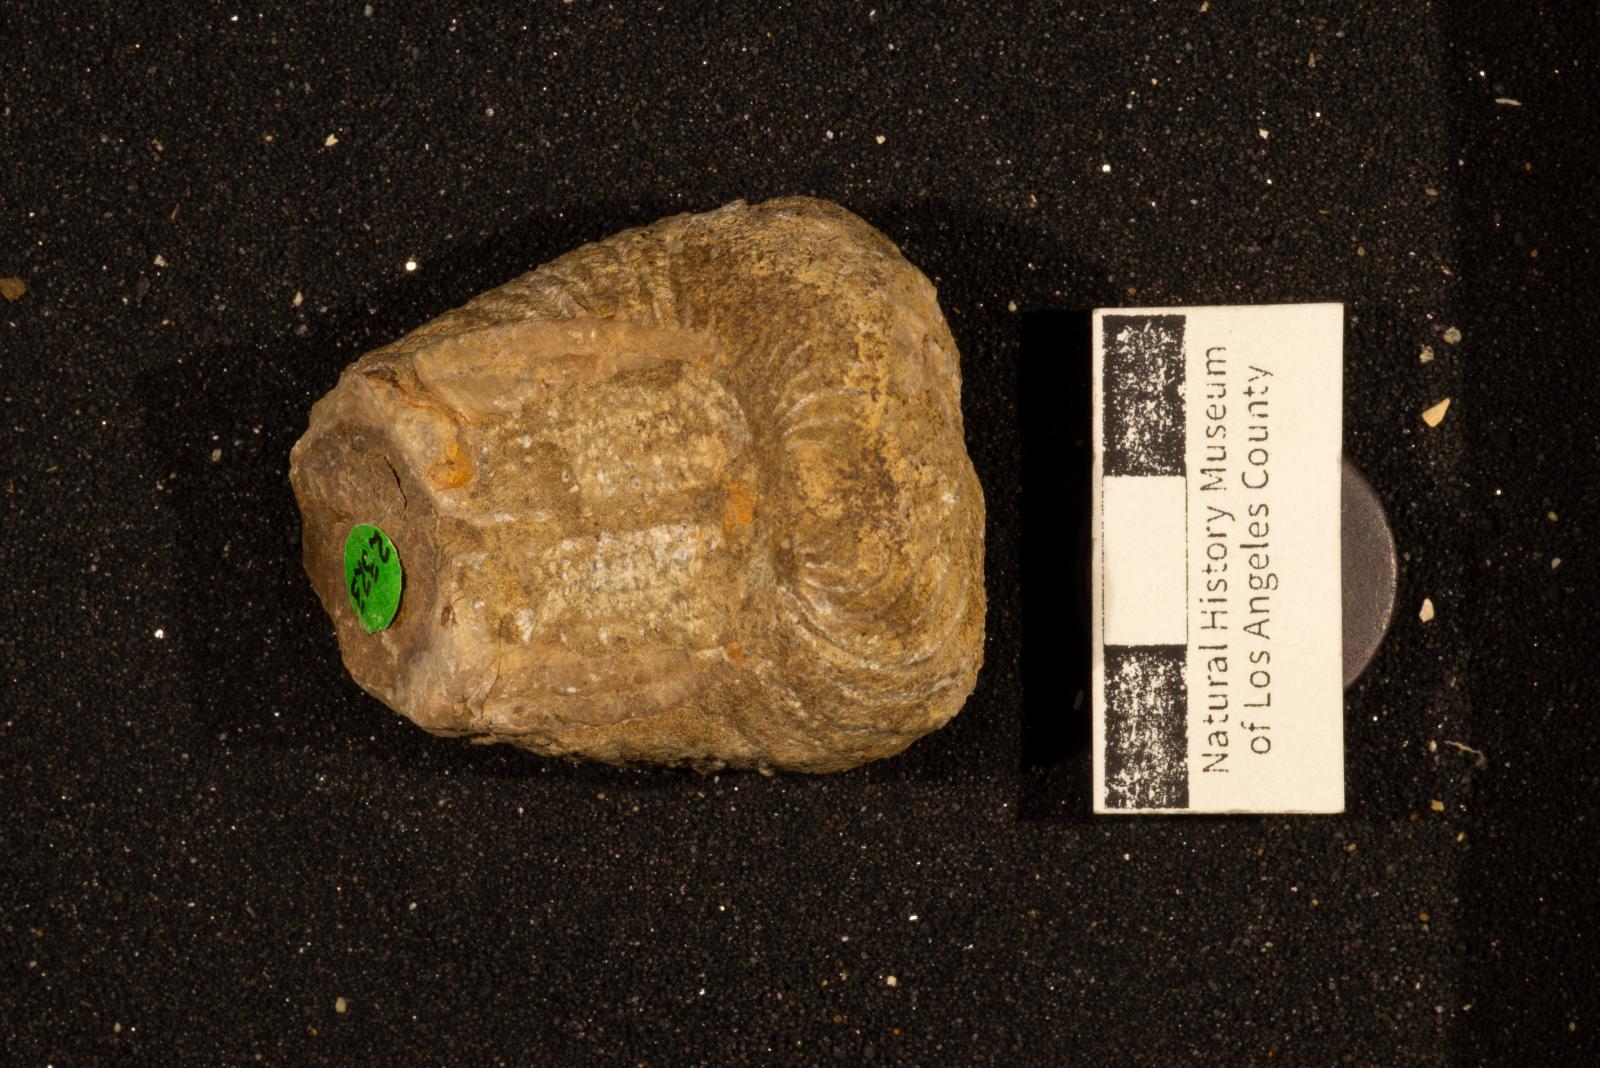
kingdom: Animalia
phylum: Mollusca
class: Bivalvia
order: Trigoniida
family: Pterotrigoniidae
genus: Notoscabrotrigonia
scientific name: Notoscabrotrigonia klamathonia
